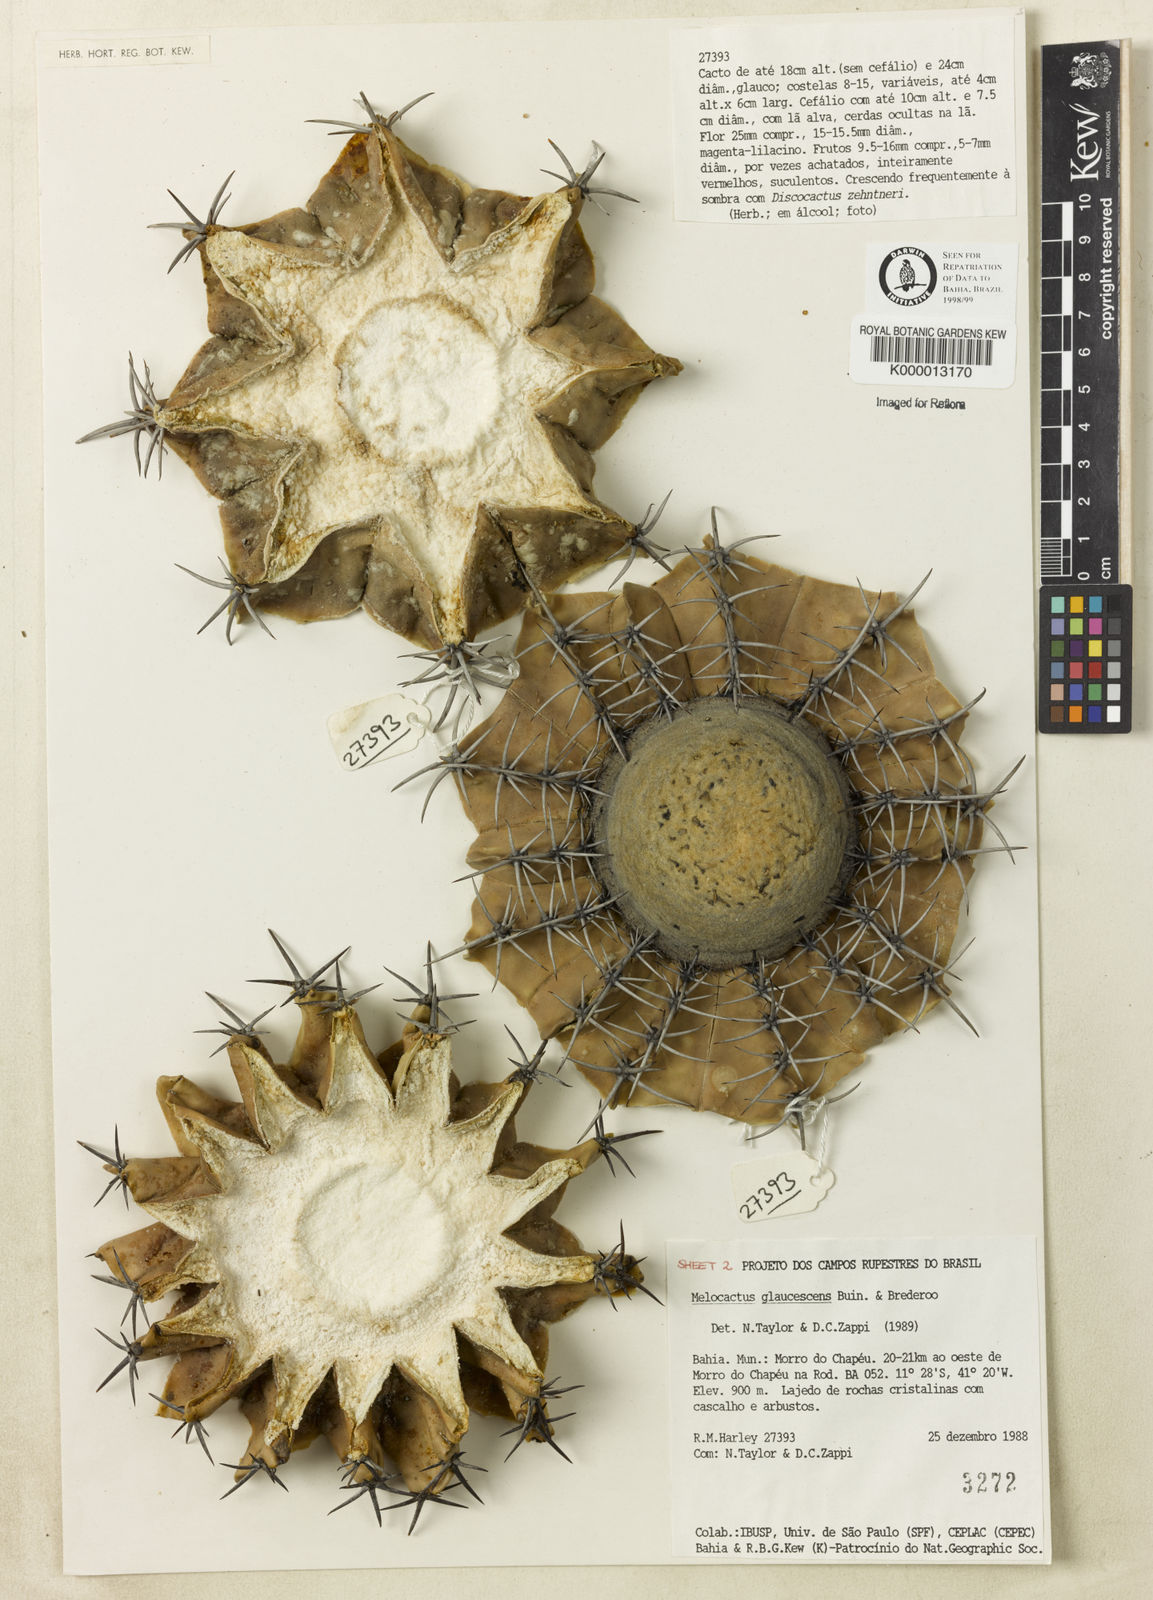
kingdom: Plantae
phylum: Tracheophyta
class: Magnoliopsida
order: Caryophyllales
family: Cactaceae
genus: Melocactus
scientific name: Melocactus glaucescens
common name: Woolly wax-stem turk's-cap cactus
